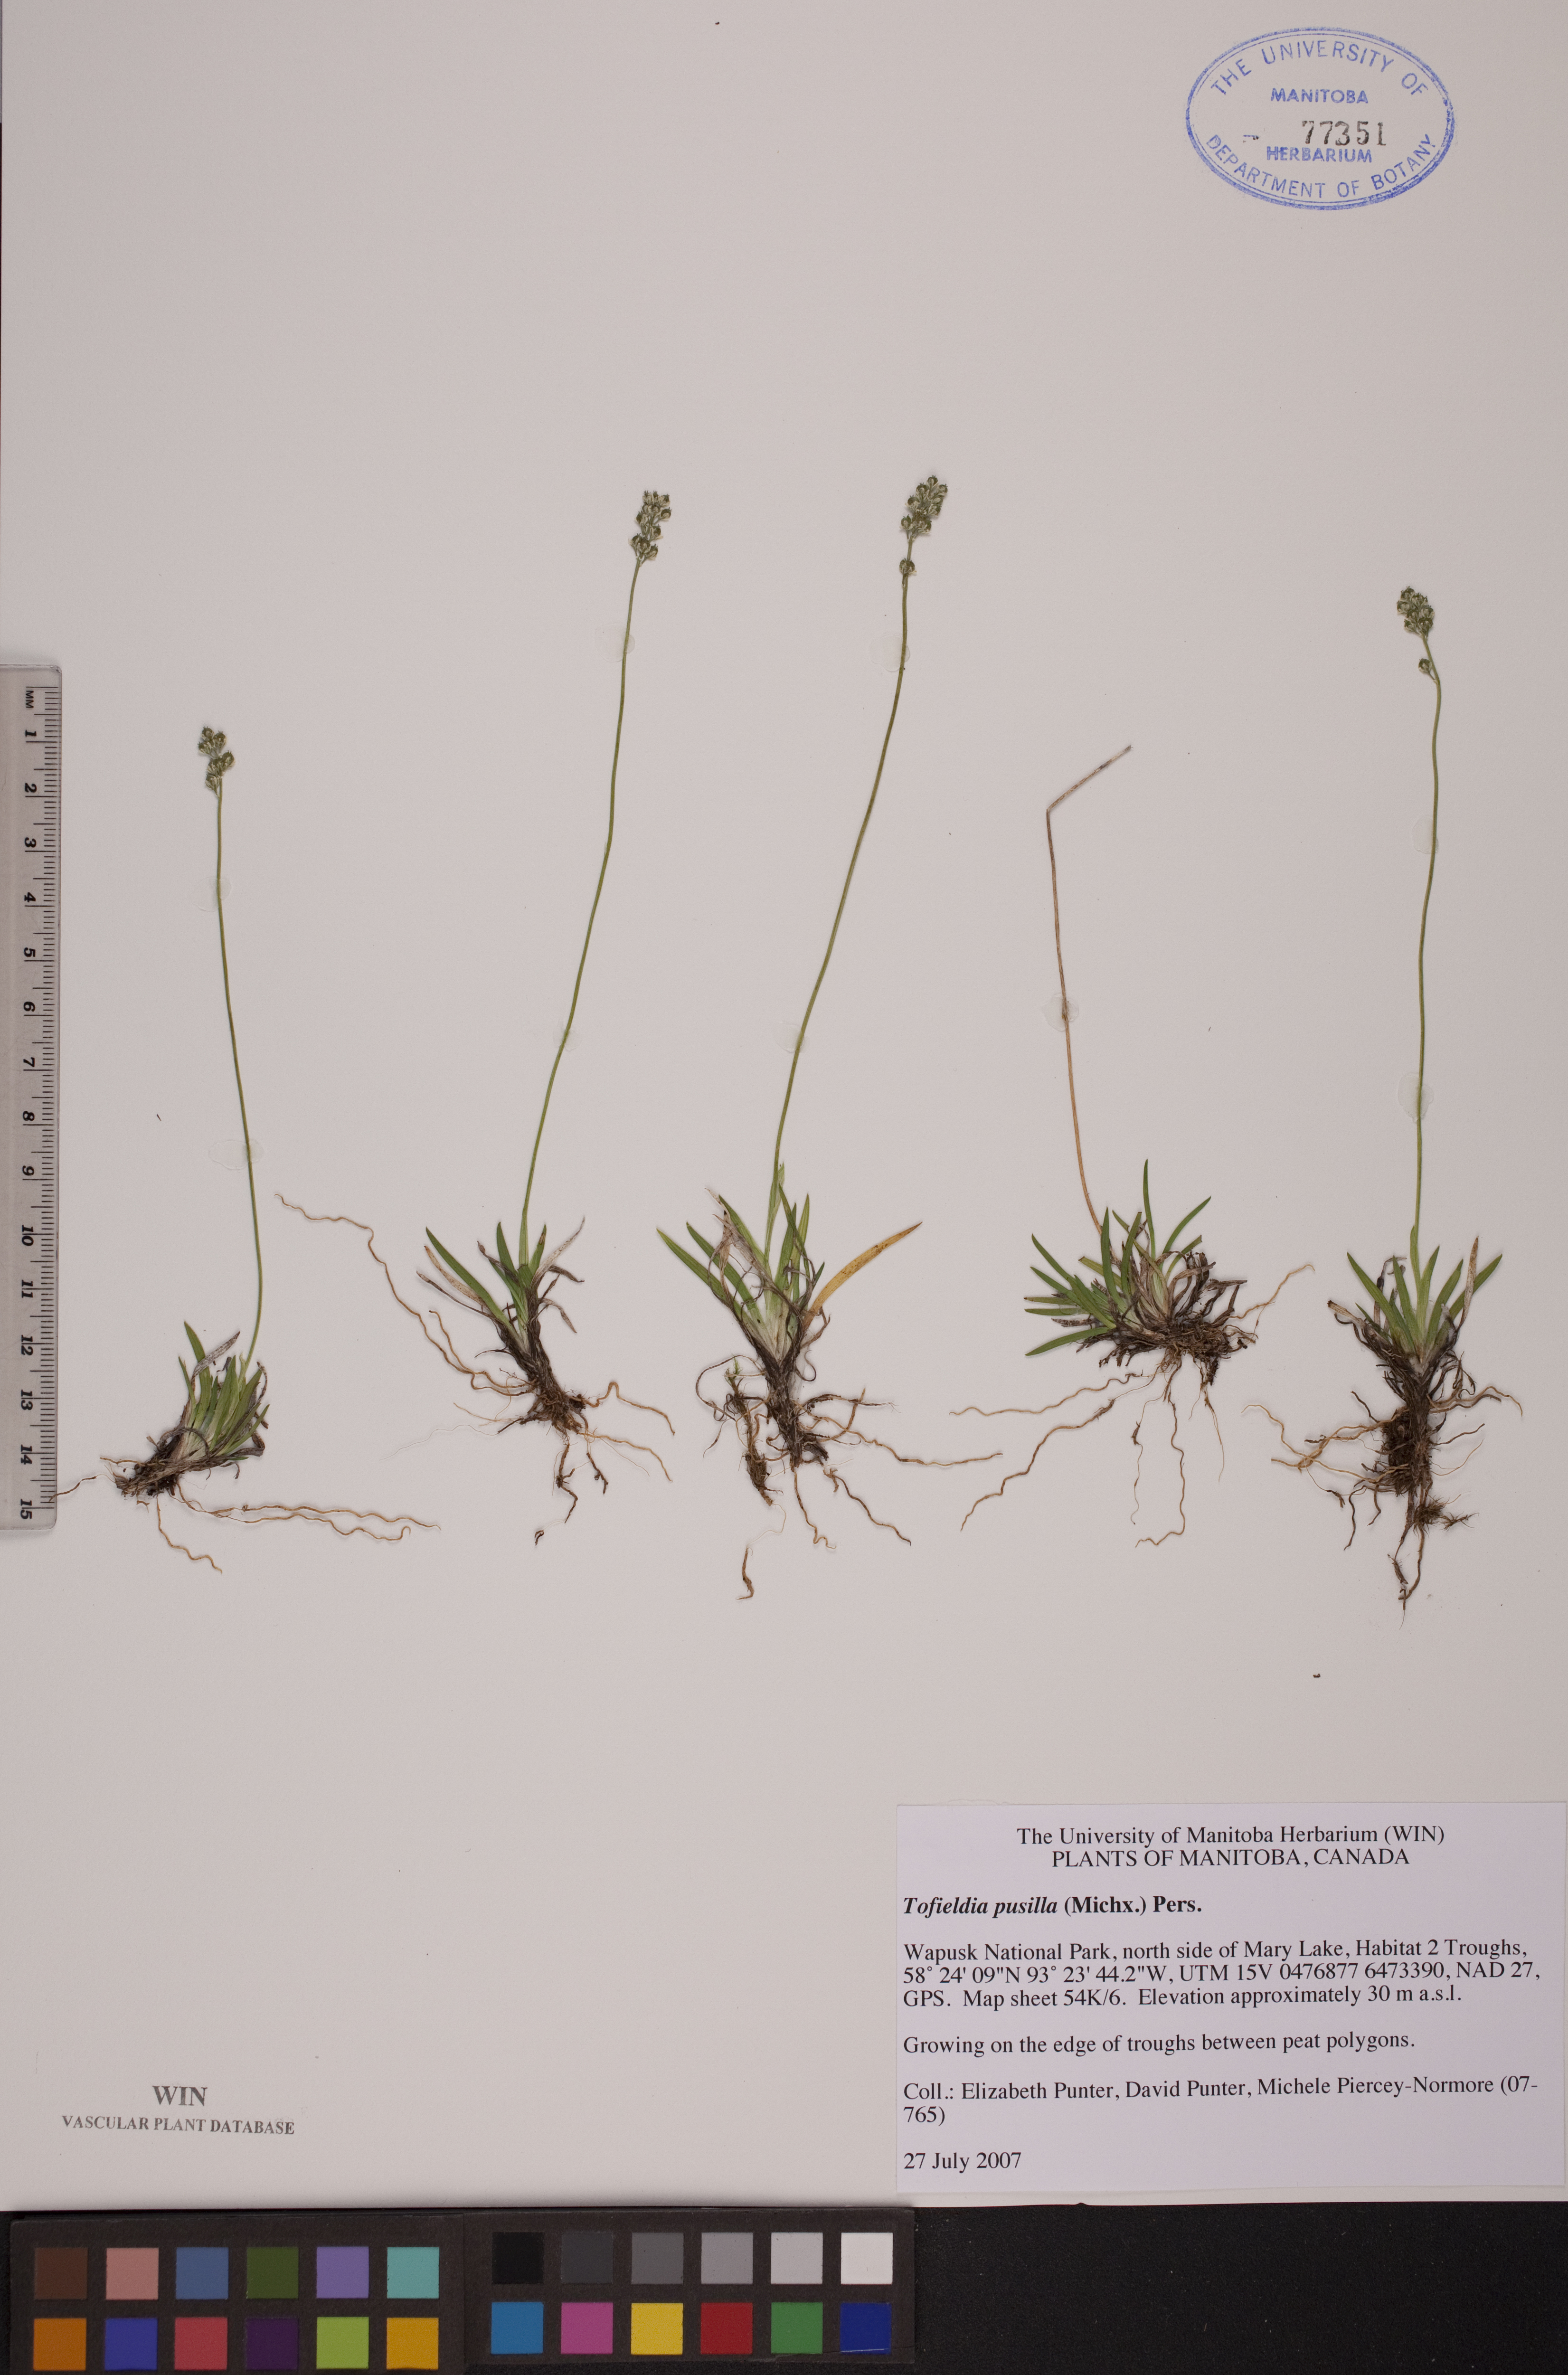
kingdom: Plantae
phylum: Tracheophyta
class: Liliopsida
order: Alismatales
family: Tofieldiaceae
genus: Tofieldia
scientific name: Tofieldia pusilla
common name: Scottish false asphodel
